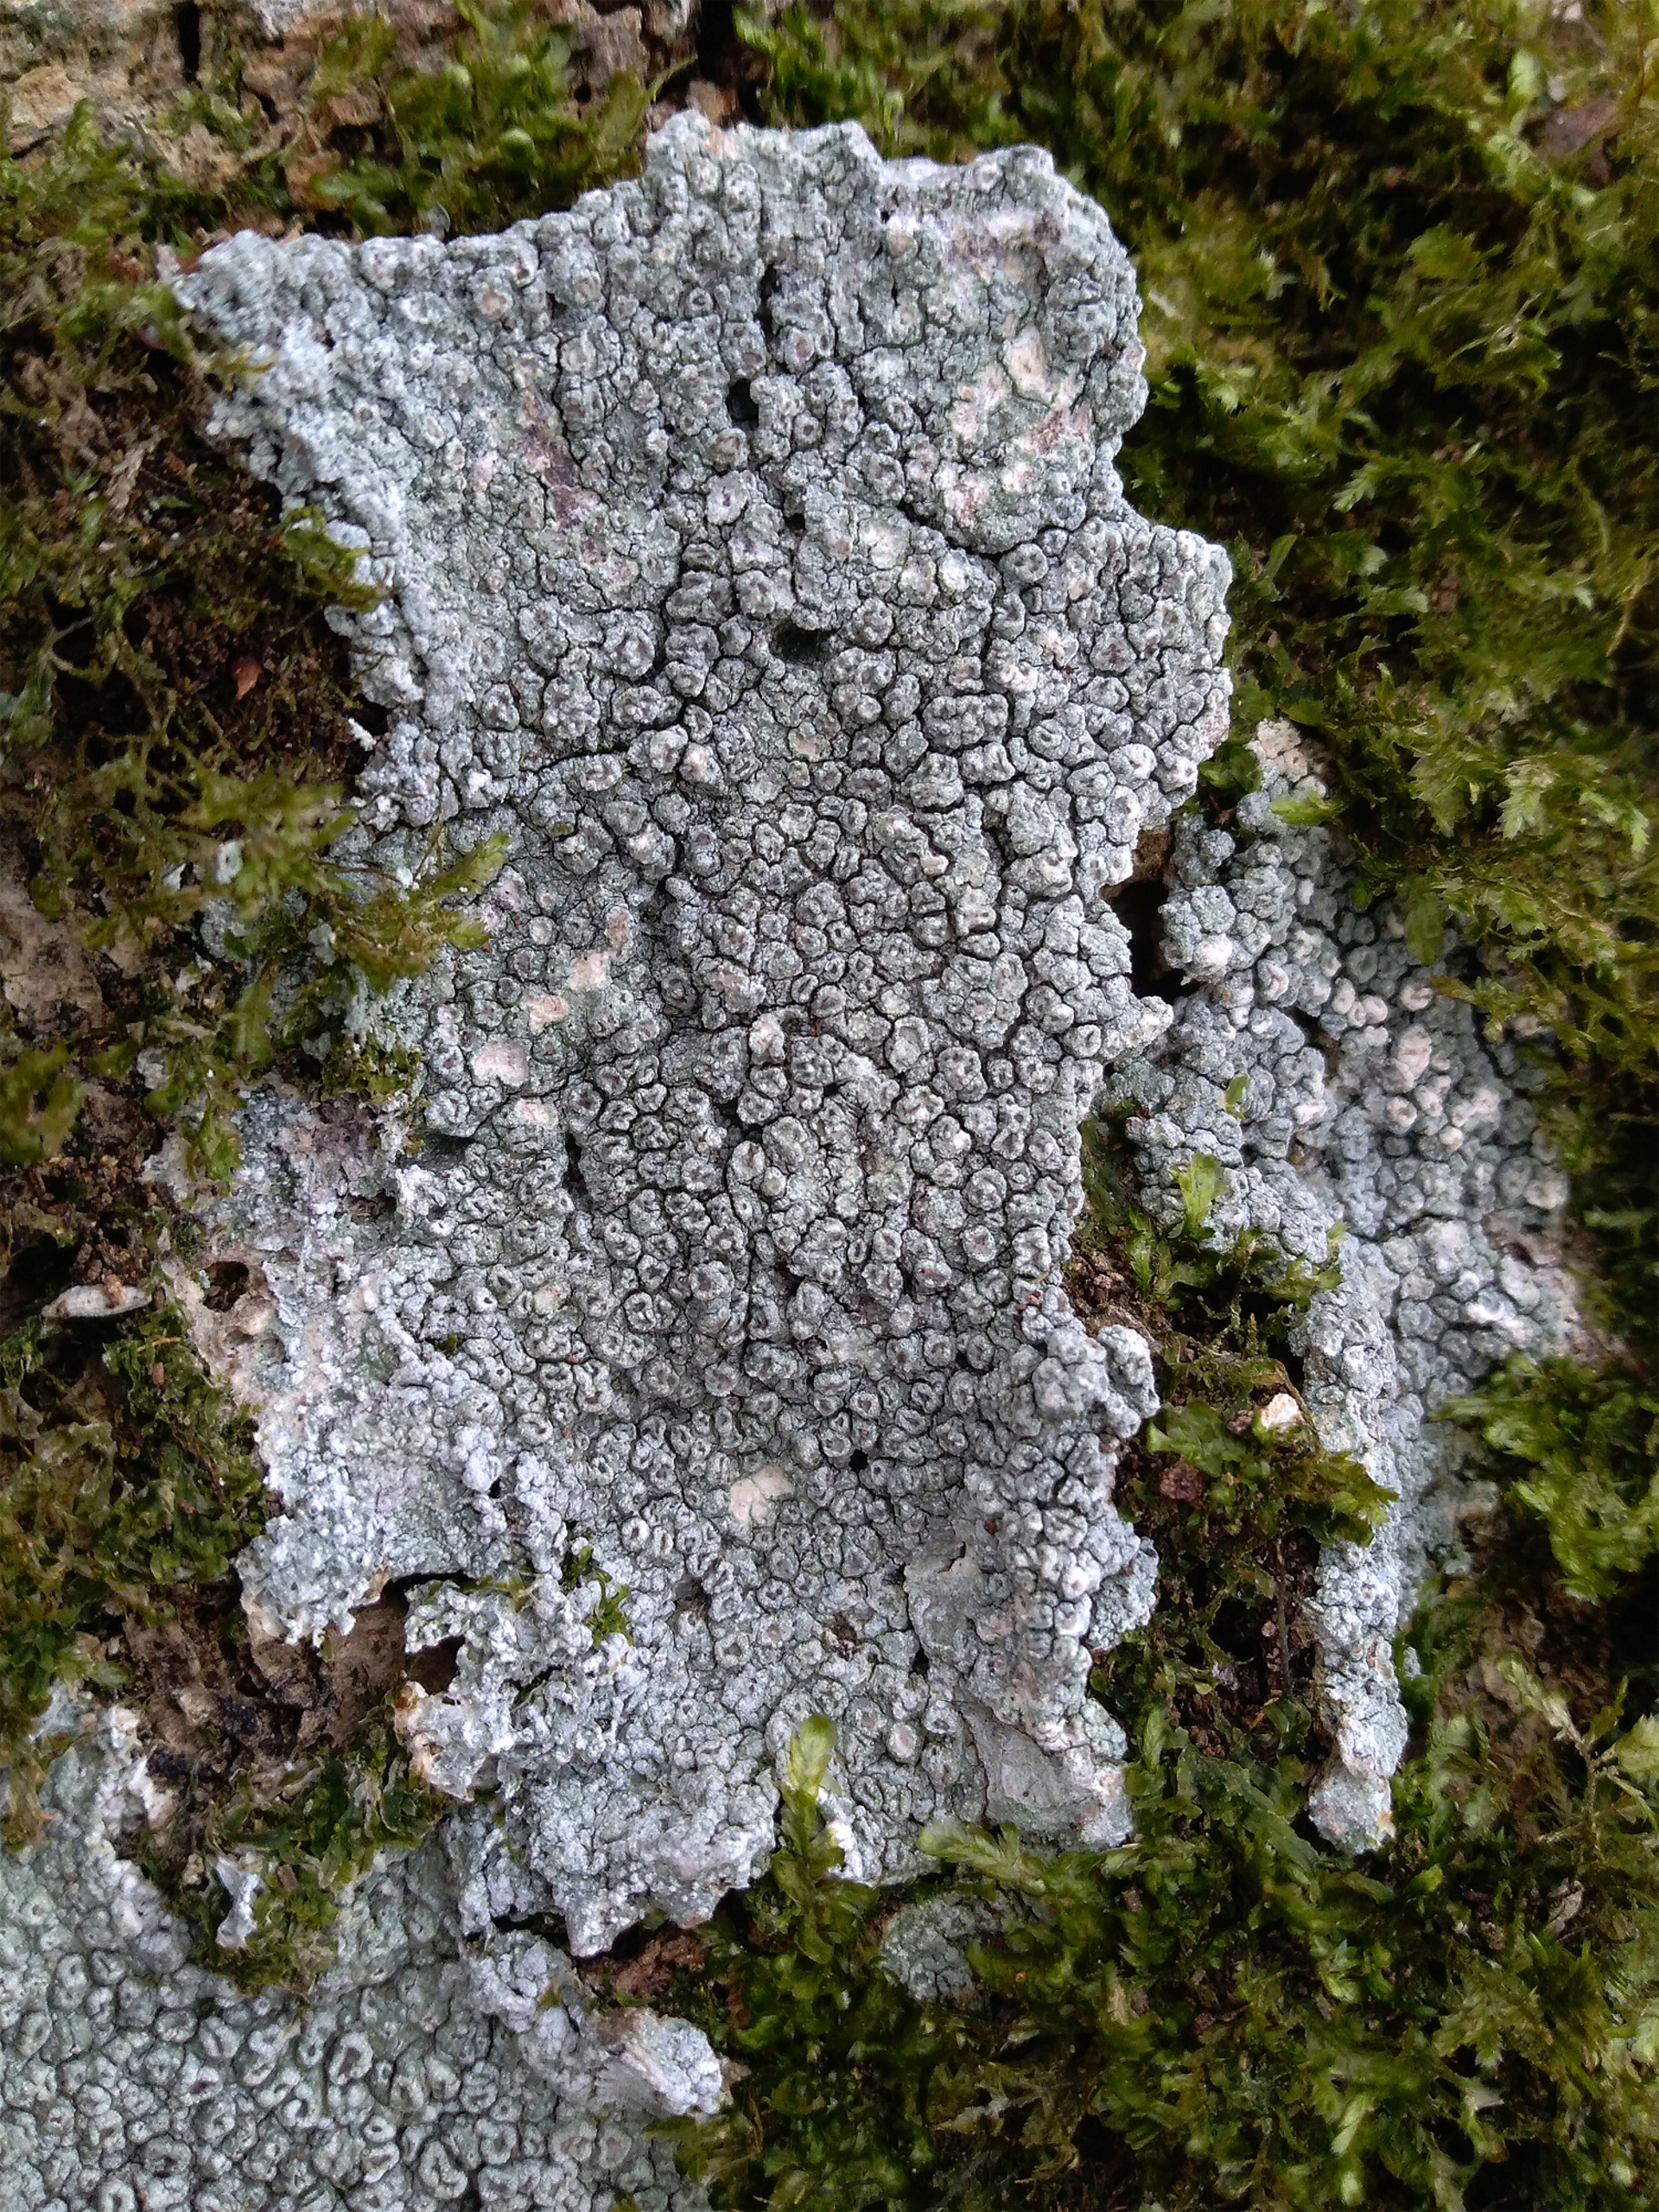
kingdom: Fungi
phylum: Ascomycota
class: Lecanoromycetes
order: Pertusariales
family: Pertusariaceae
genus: Pertusaria
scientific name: Pertusaria hymenea
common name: Åben prikvortelav
